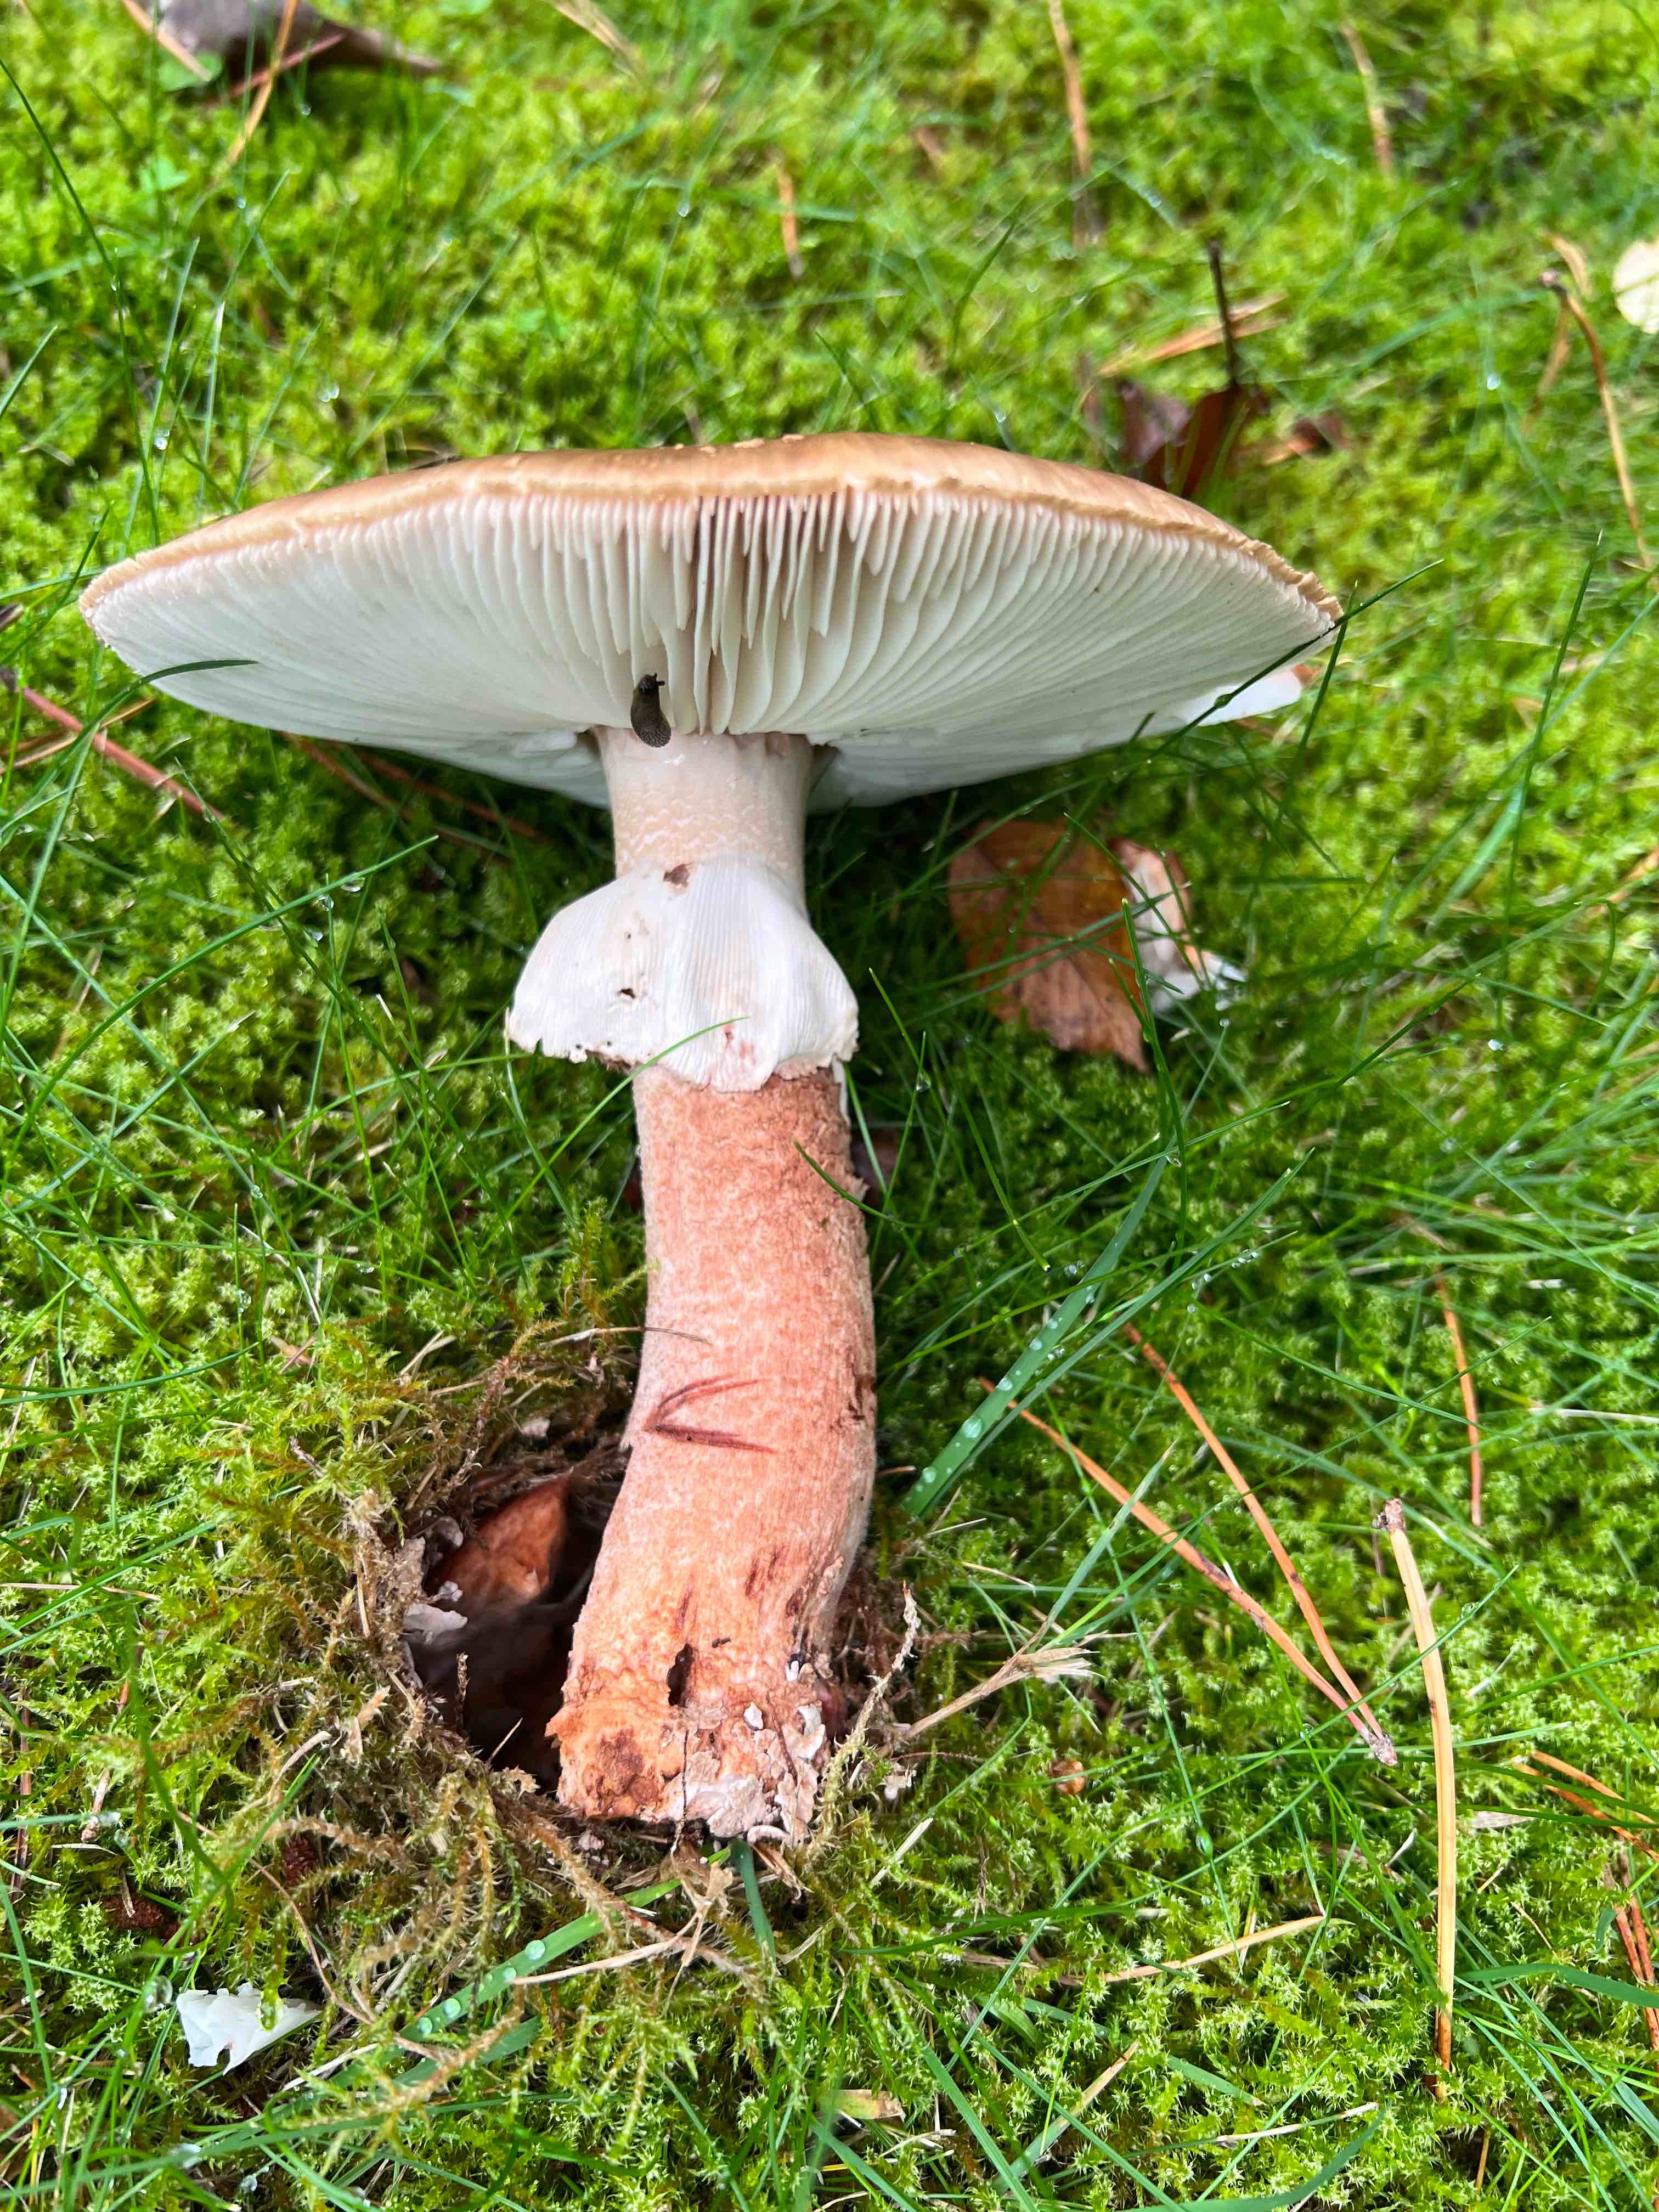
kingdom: Fungi
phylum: Basidiomycota
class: Agaricomycetes
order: Agaricales
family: Amanitaceae
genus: Amanita
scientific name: Amanita rubescens
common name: rødmende fluesvamp
